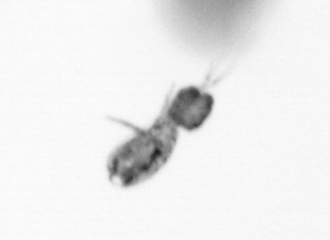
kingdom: Animalia
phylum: Arthropoda
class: Copepoda
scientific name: Copepoda
